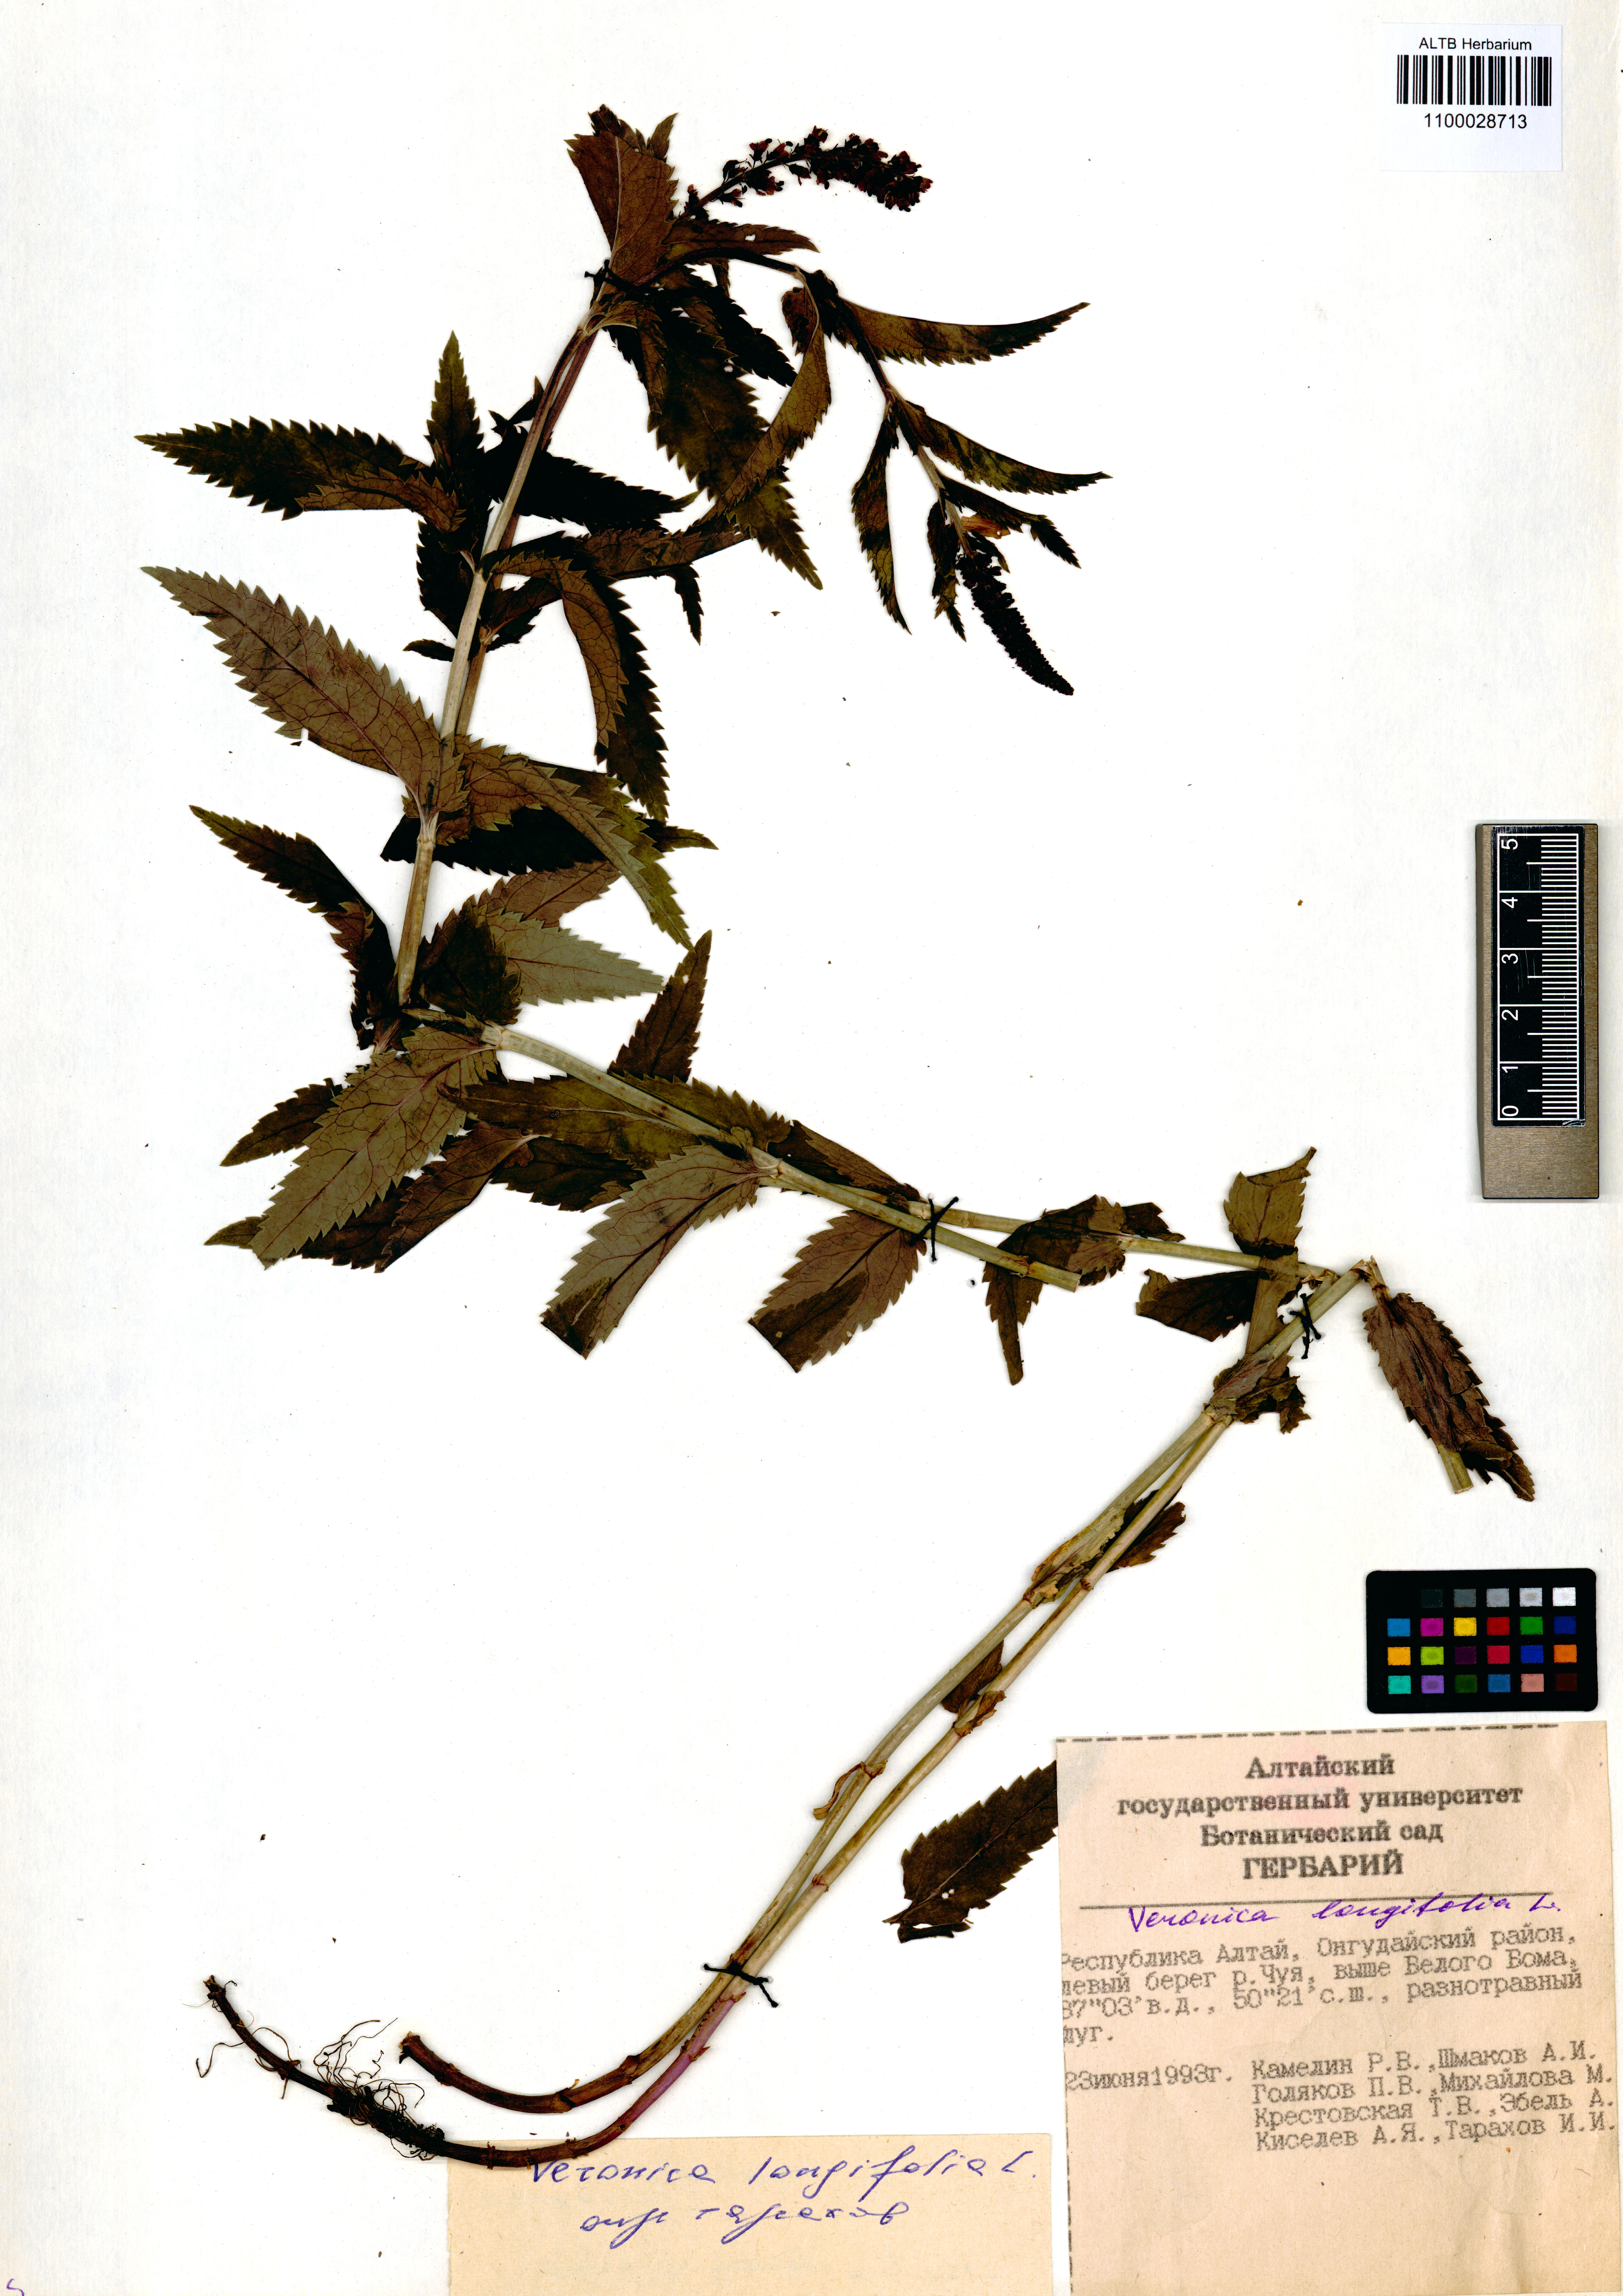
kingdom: Plantae
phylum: Tracheophyta
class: Magnoliopsida
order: Lamiales
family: Plantaginaceae
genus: Veronica
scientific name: Veronica longifolia
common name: Garden speedwell
